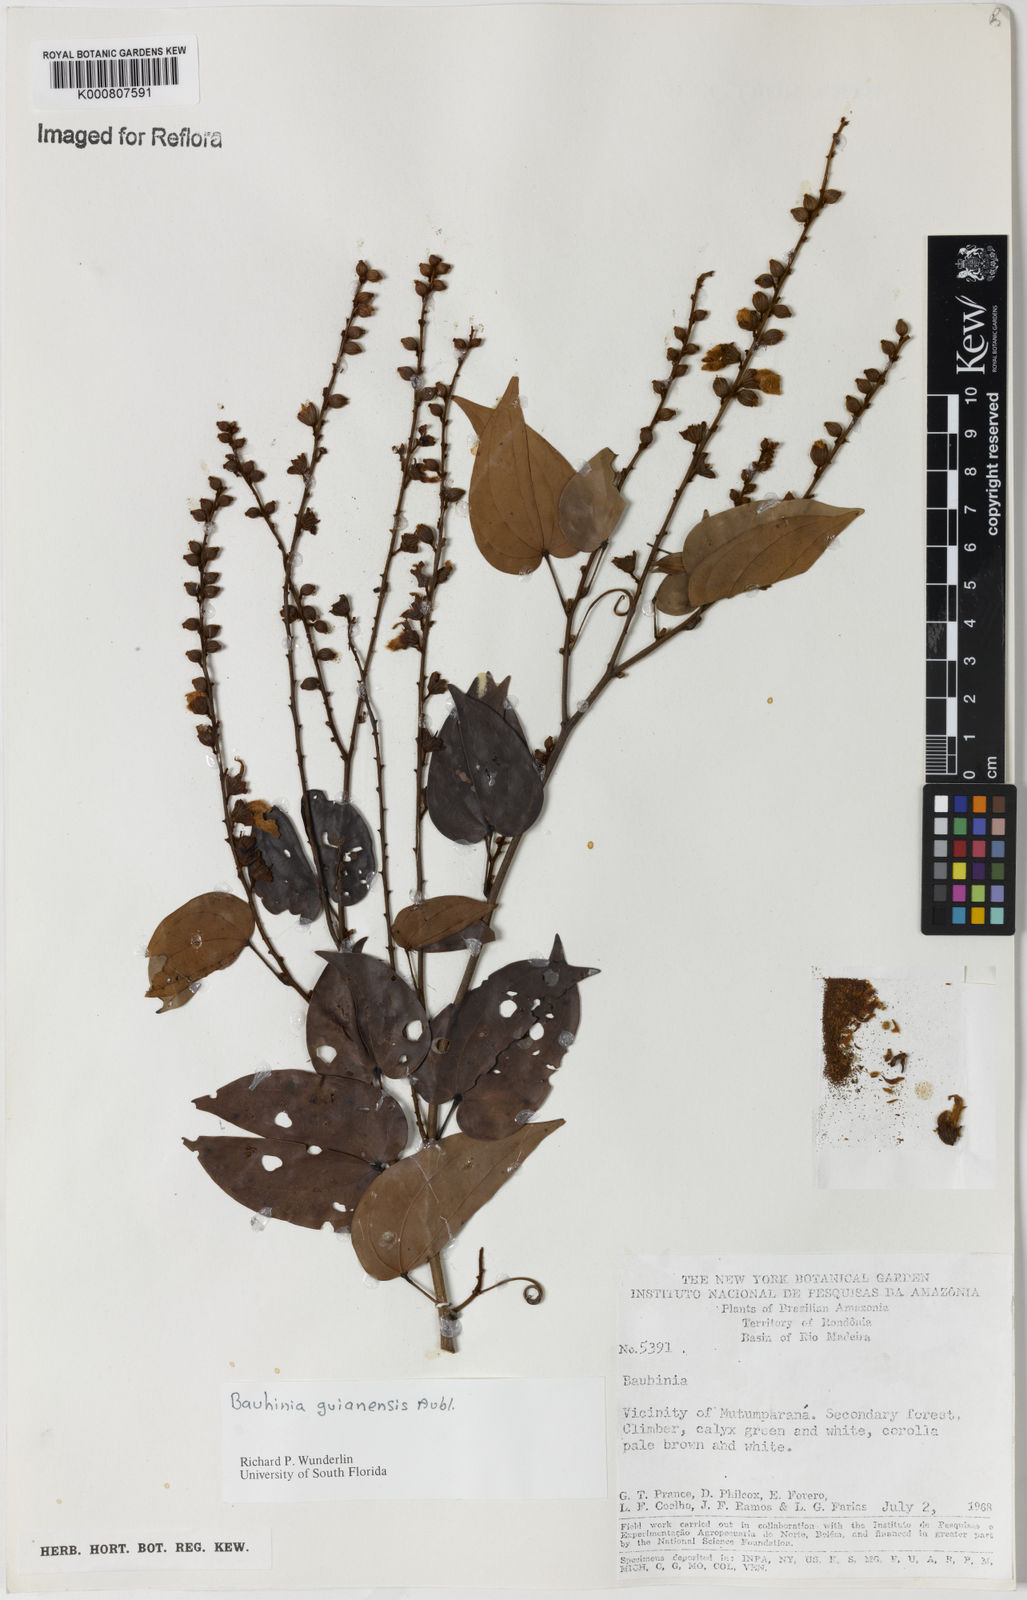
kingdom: Plantae
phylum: Tracheophyta
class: Magnoliopsida
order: Fabales
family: Fabaceae
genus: Schnella
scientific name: Schnella guianensis
